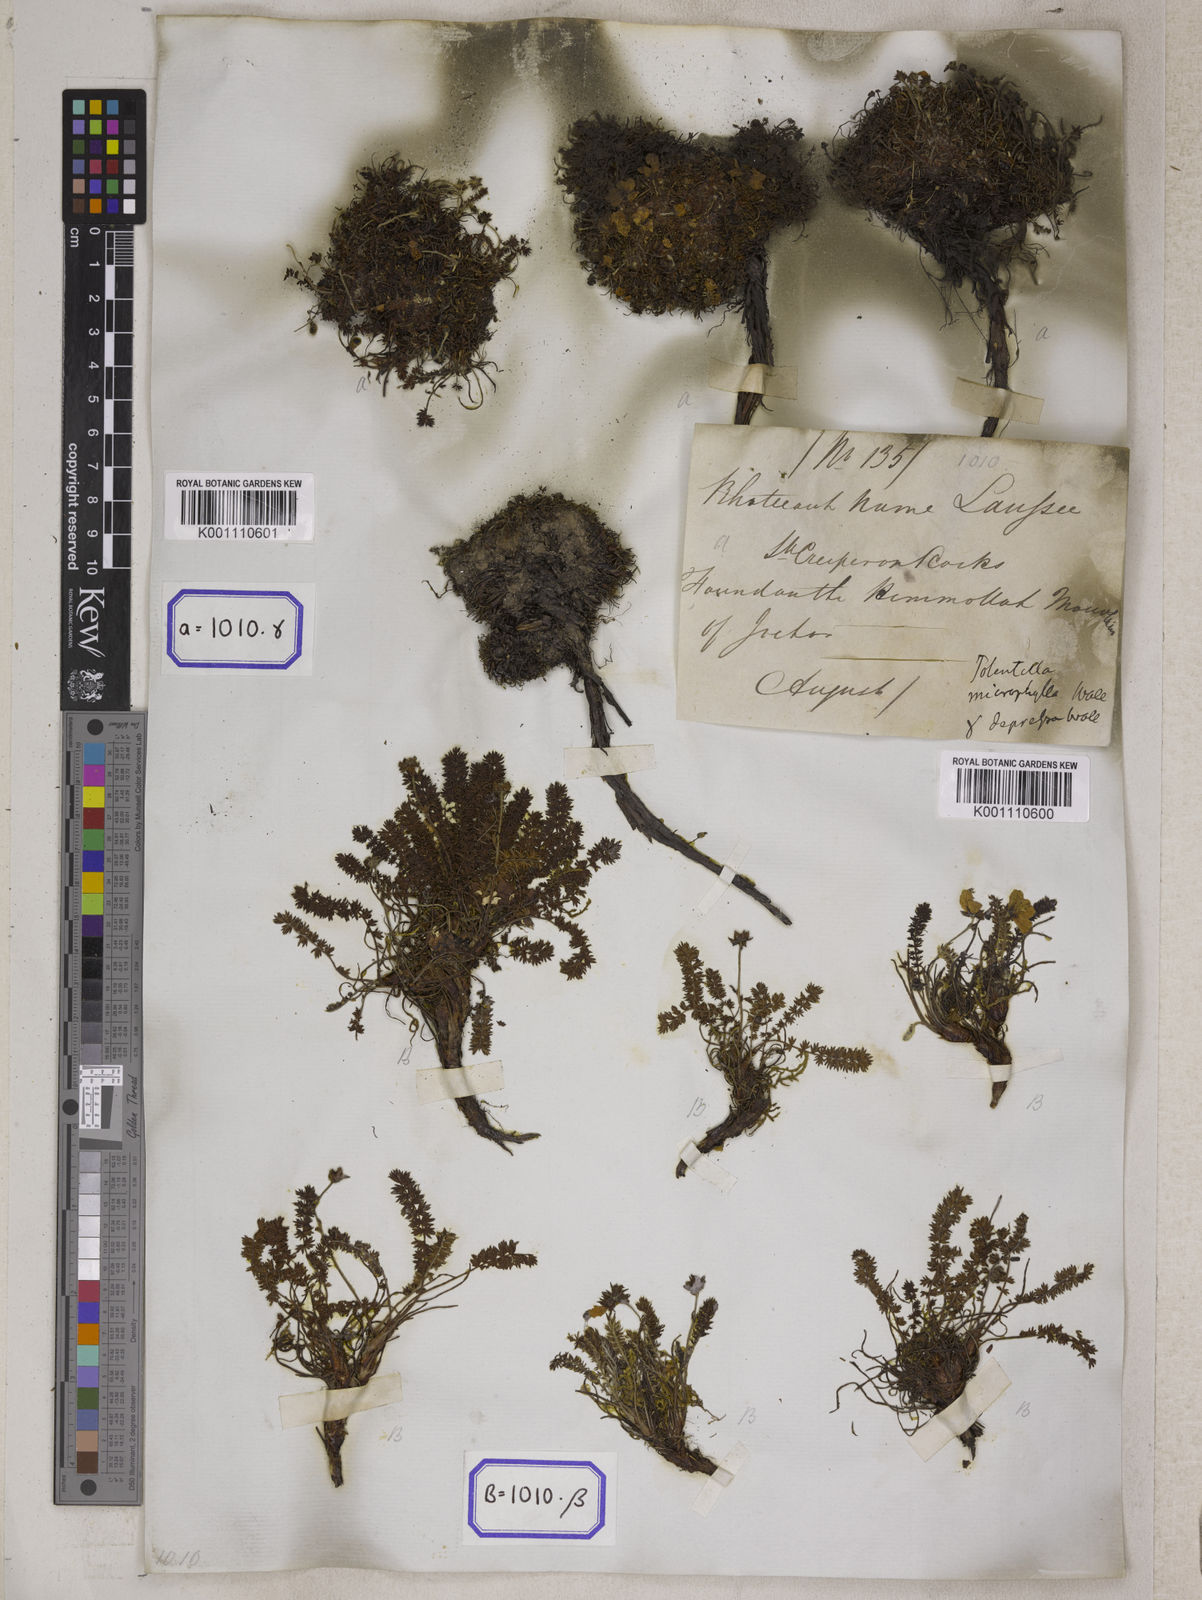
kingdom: Plantae
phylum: Tracheophyta
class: Magnoliopsida
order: Rosales
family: Rosaceae
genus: Potentilla
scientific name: Potentilla
